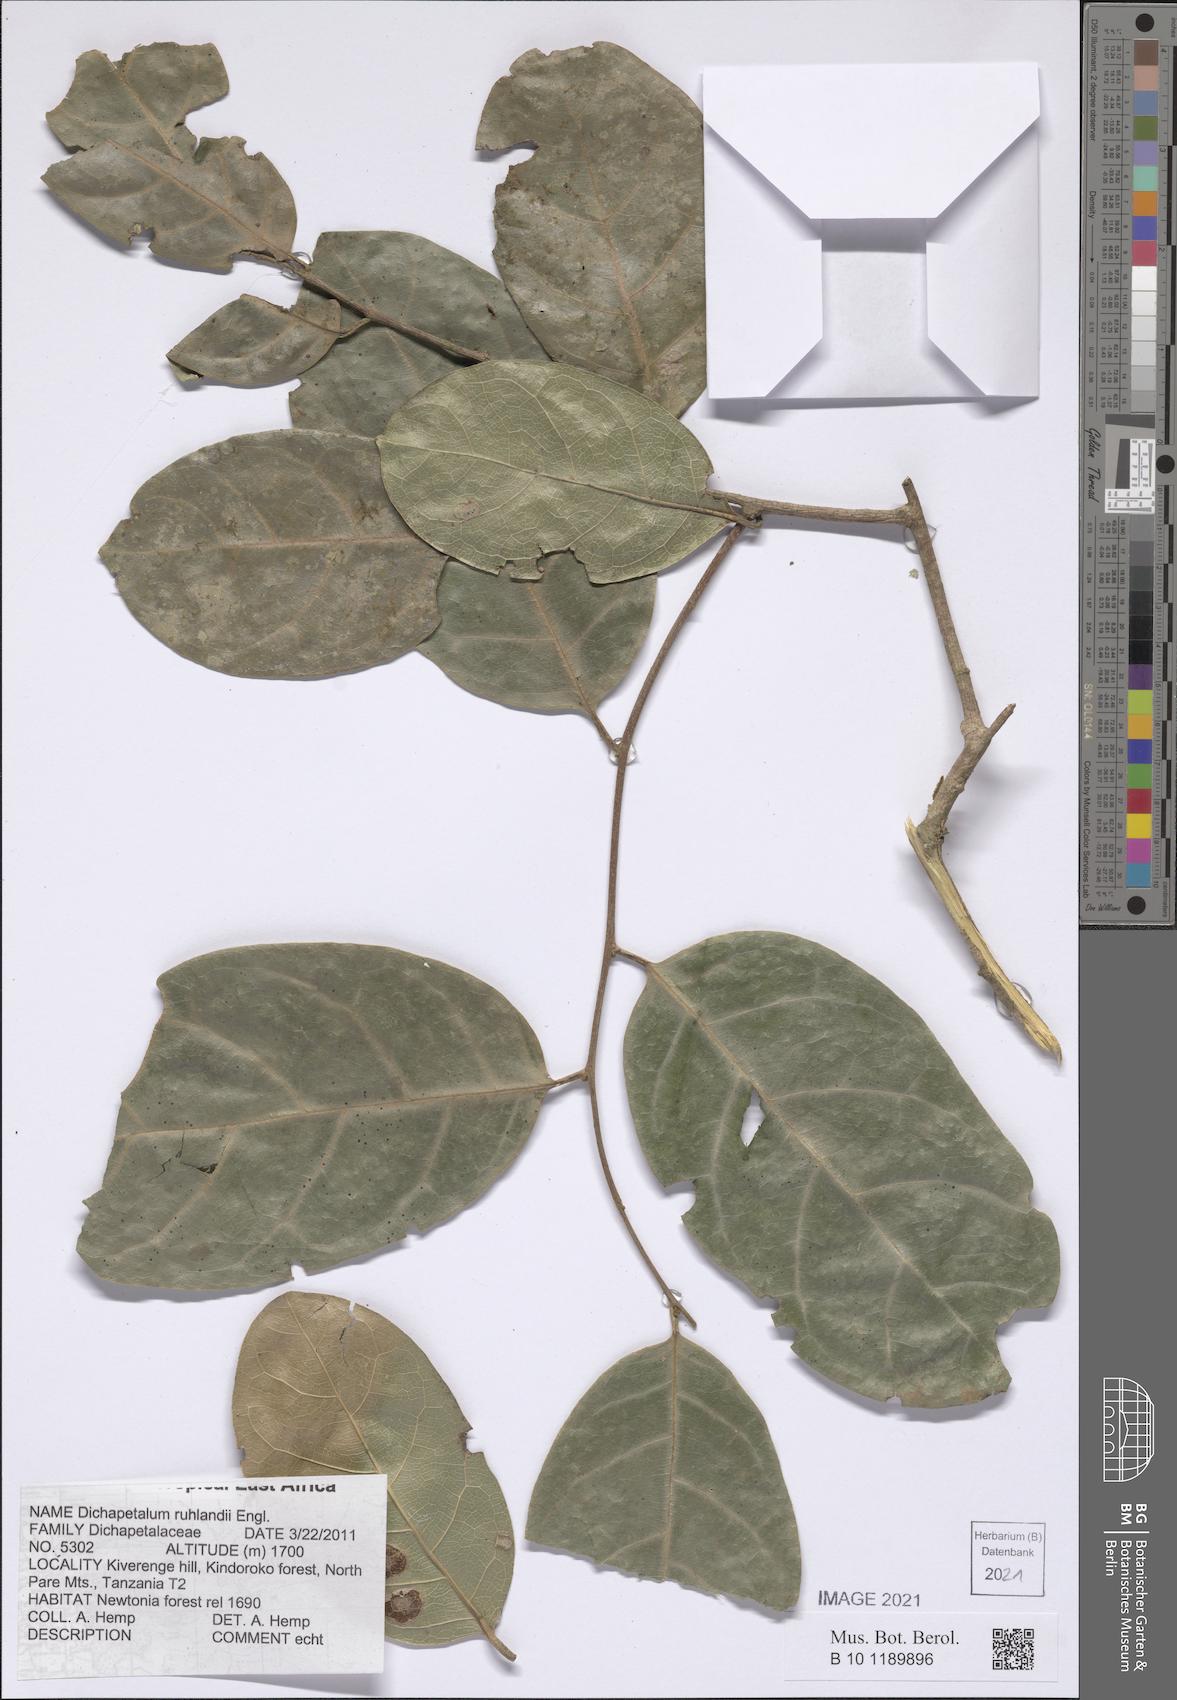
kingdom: Plantae
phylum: Tracheophyta
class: Magnoliopsida
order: Malpighiales
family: Dichapetalaceae
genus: Dichapetalum
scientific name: Dichapetalum ruhlandii
